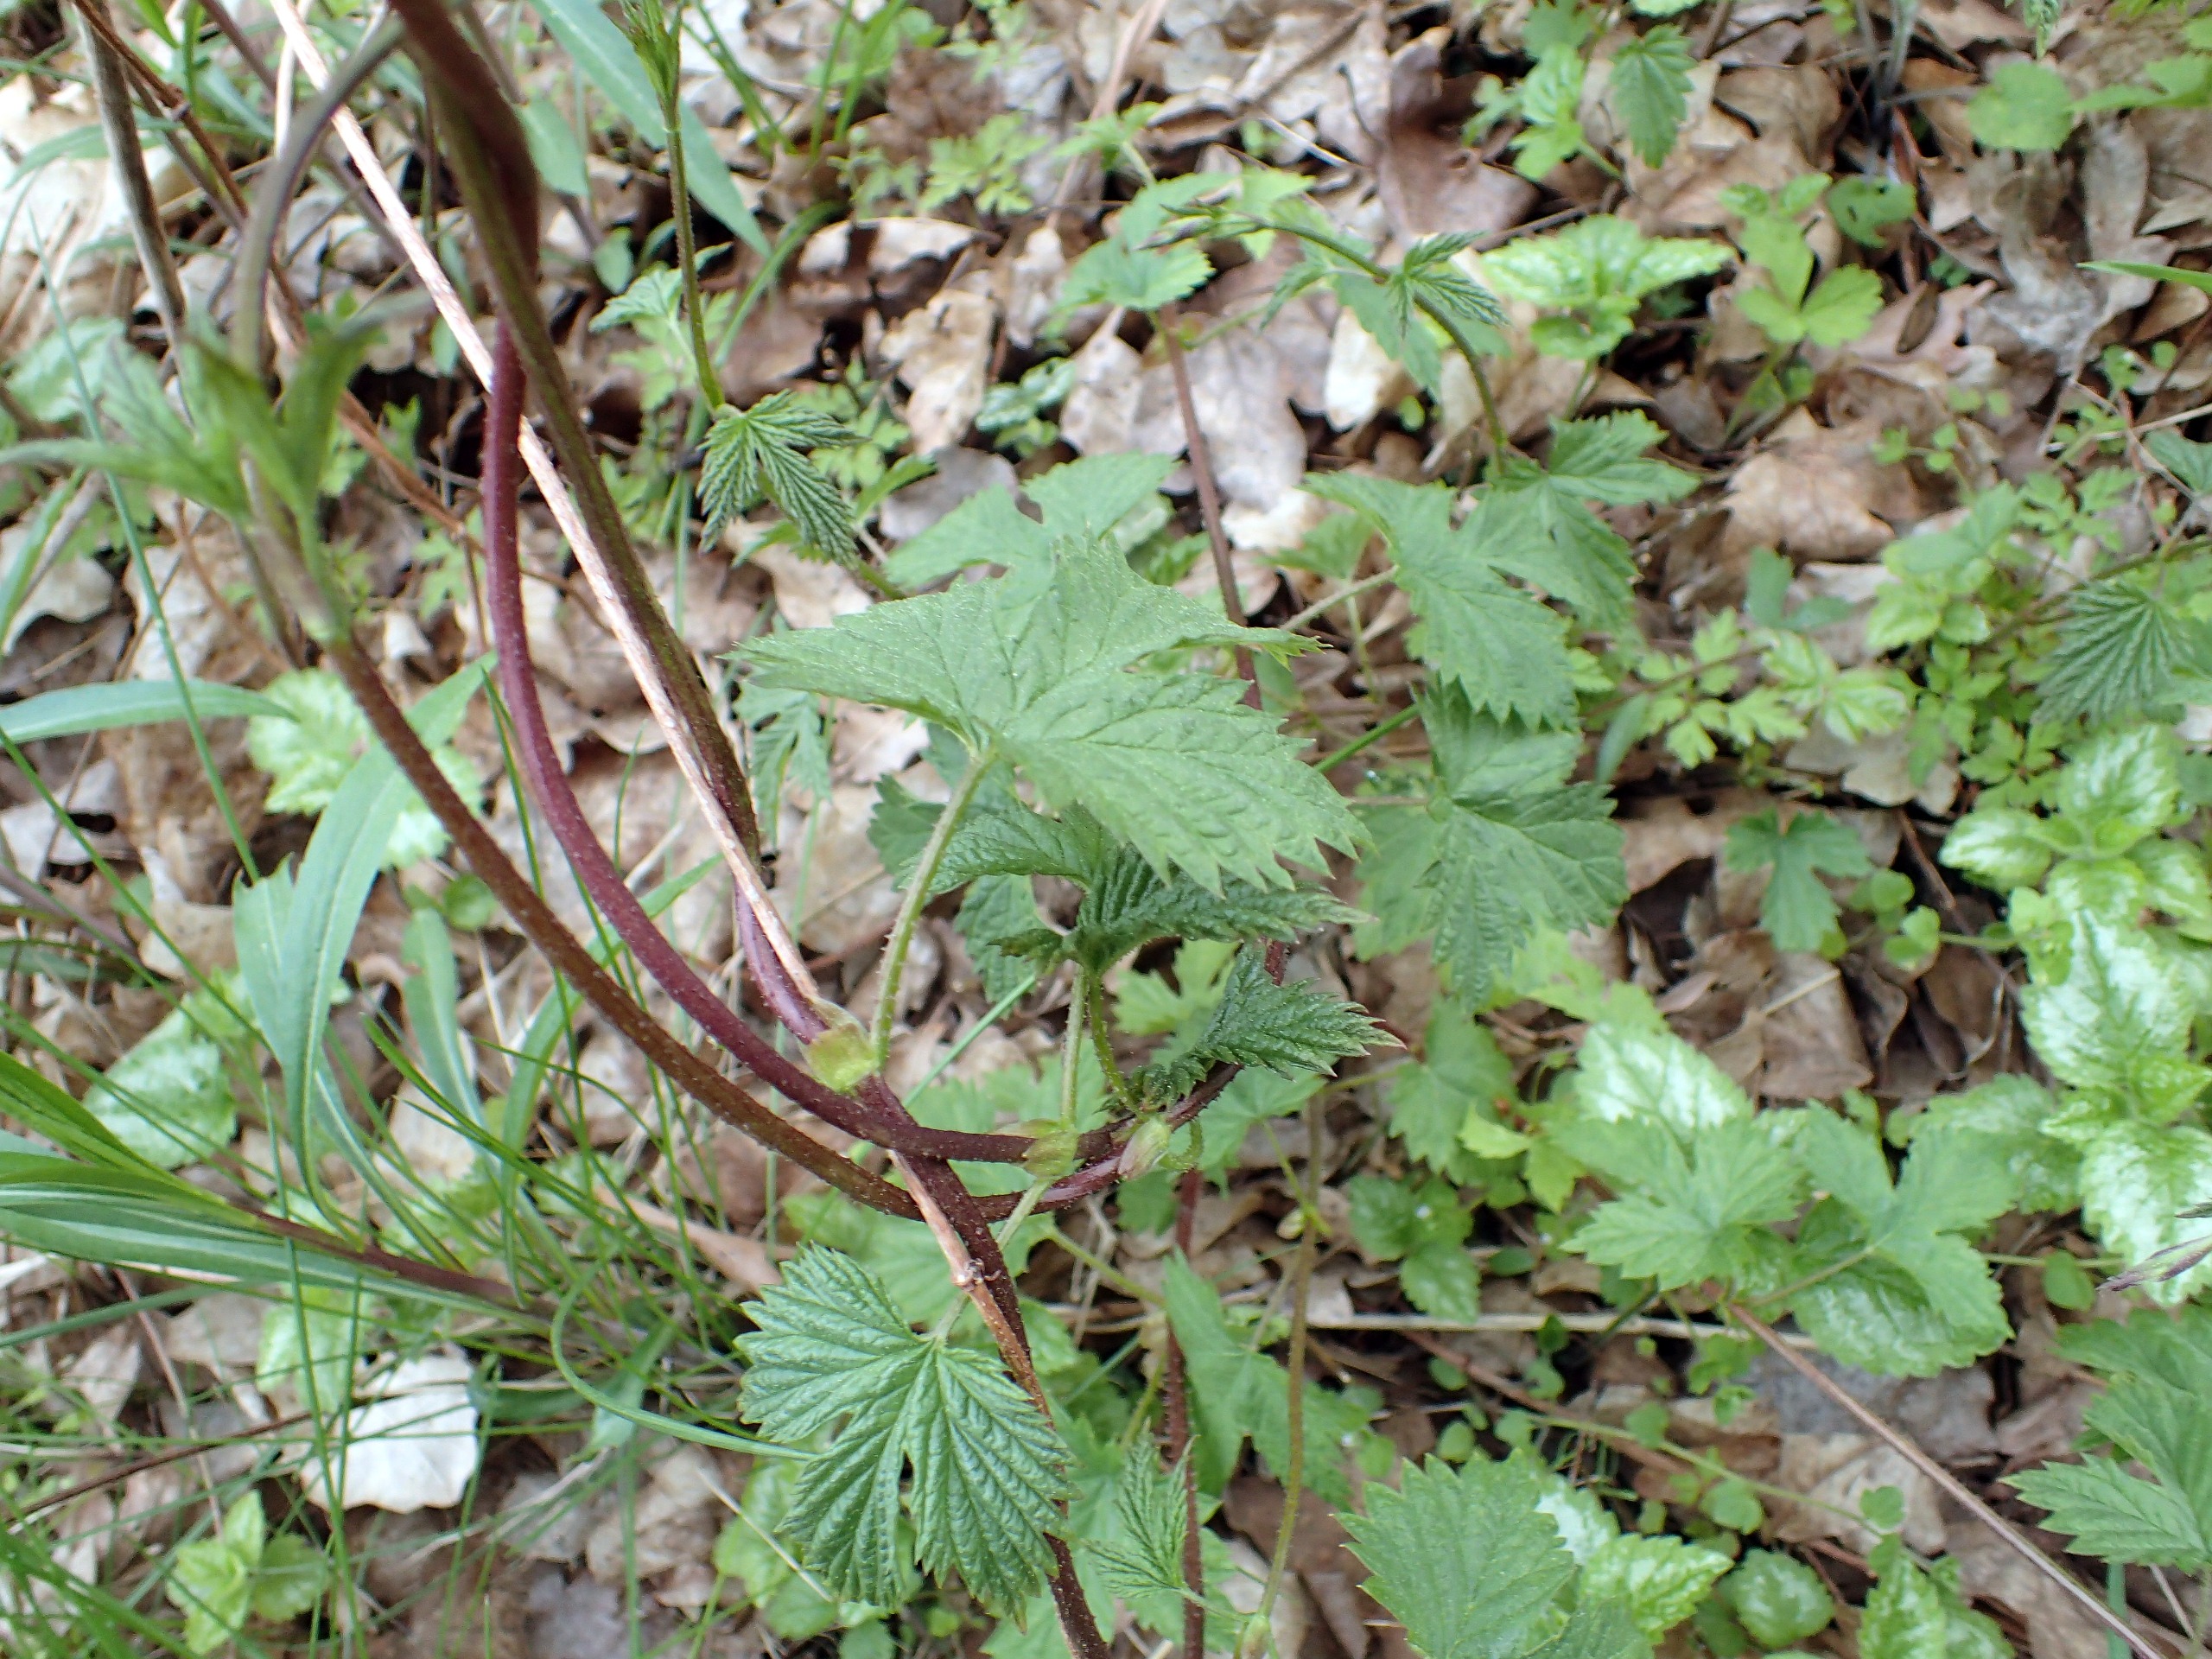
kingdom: Plantae
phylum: Tracheophyta
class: Magnoliopsida
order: Rosales
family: Cannabaceae
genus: Humulus
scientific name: Humulus lupulus
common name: Humle
